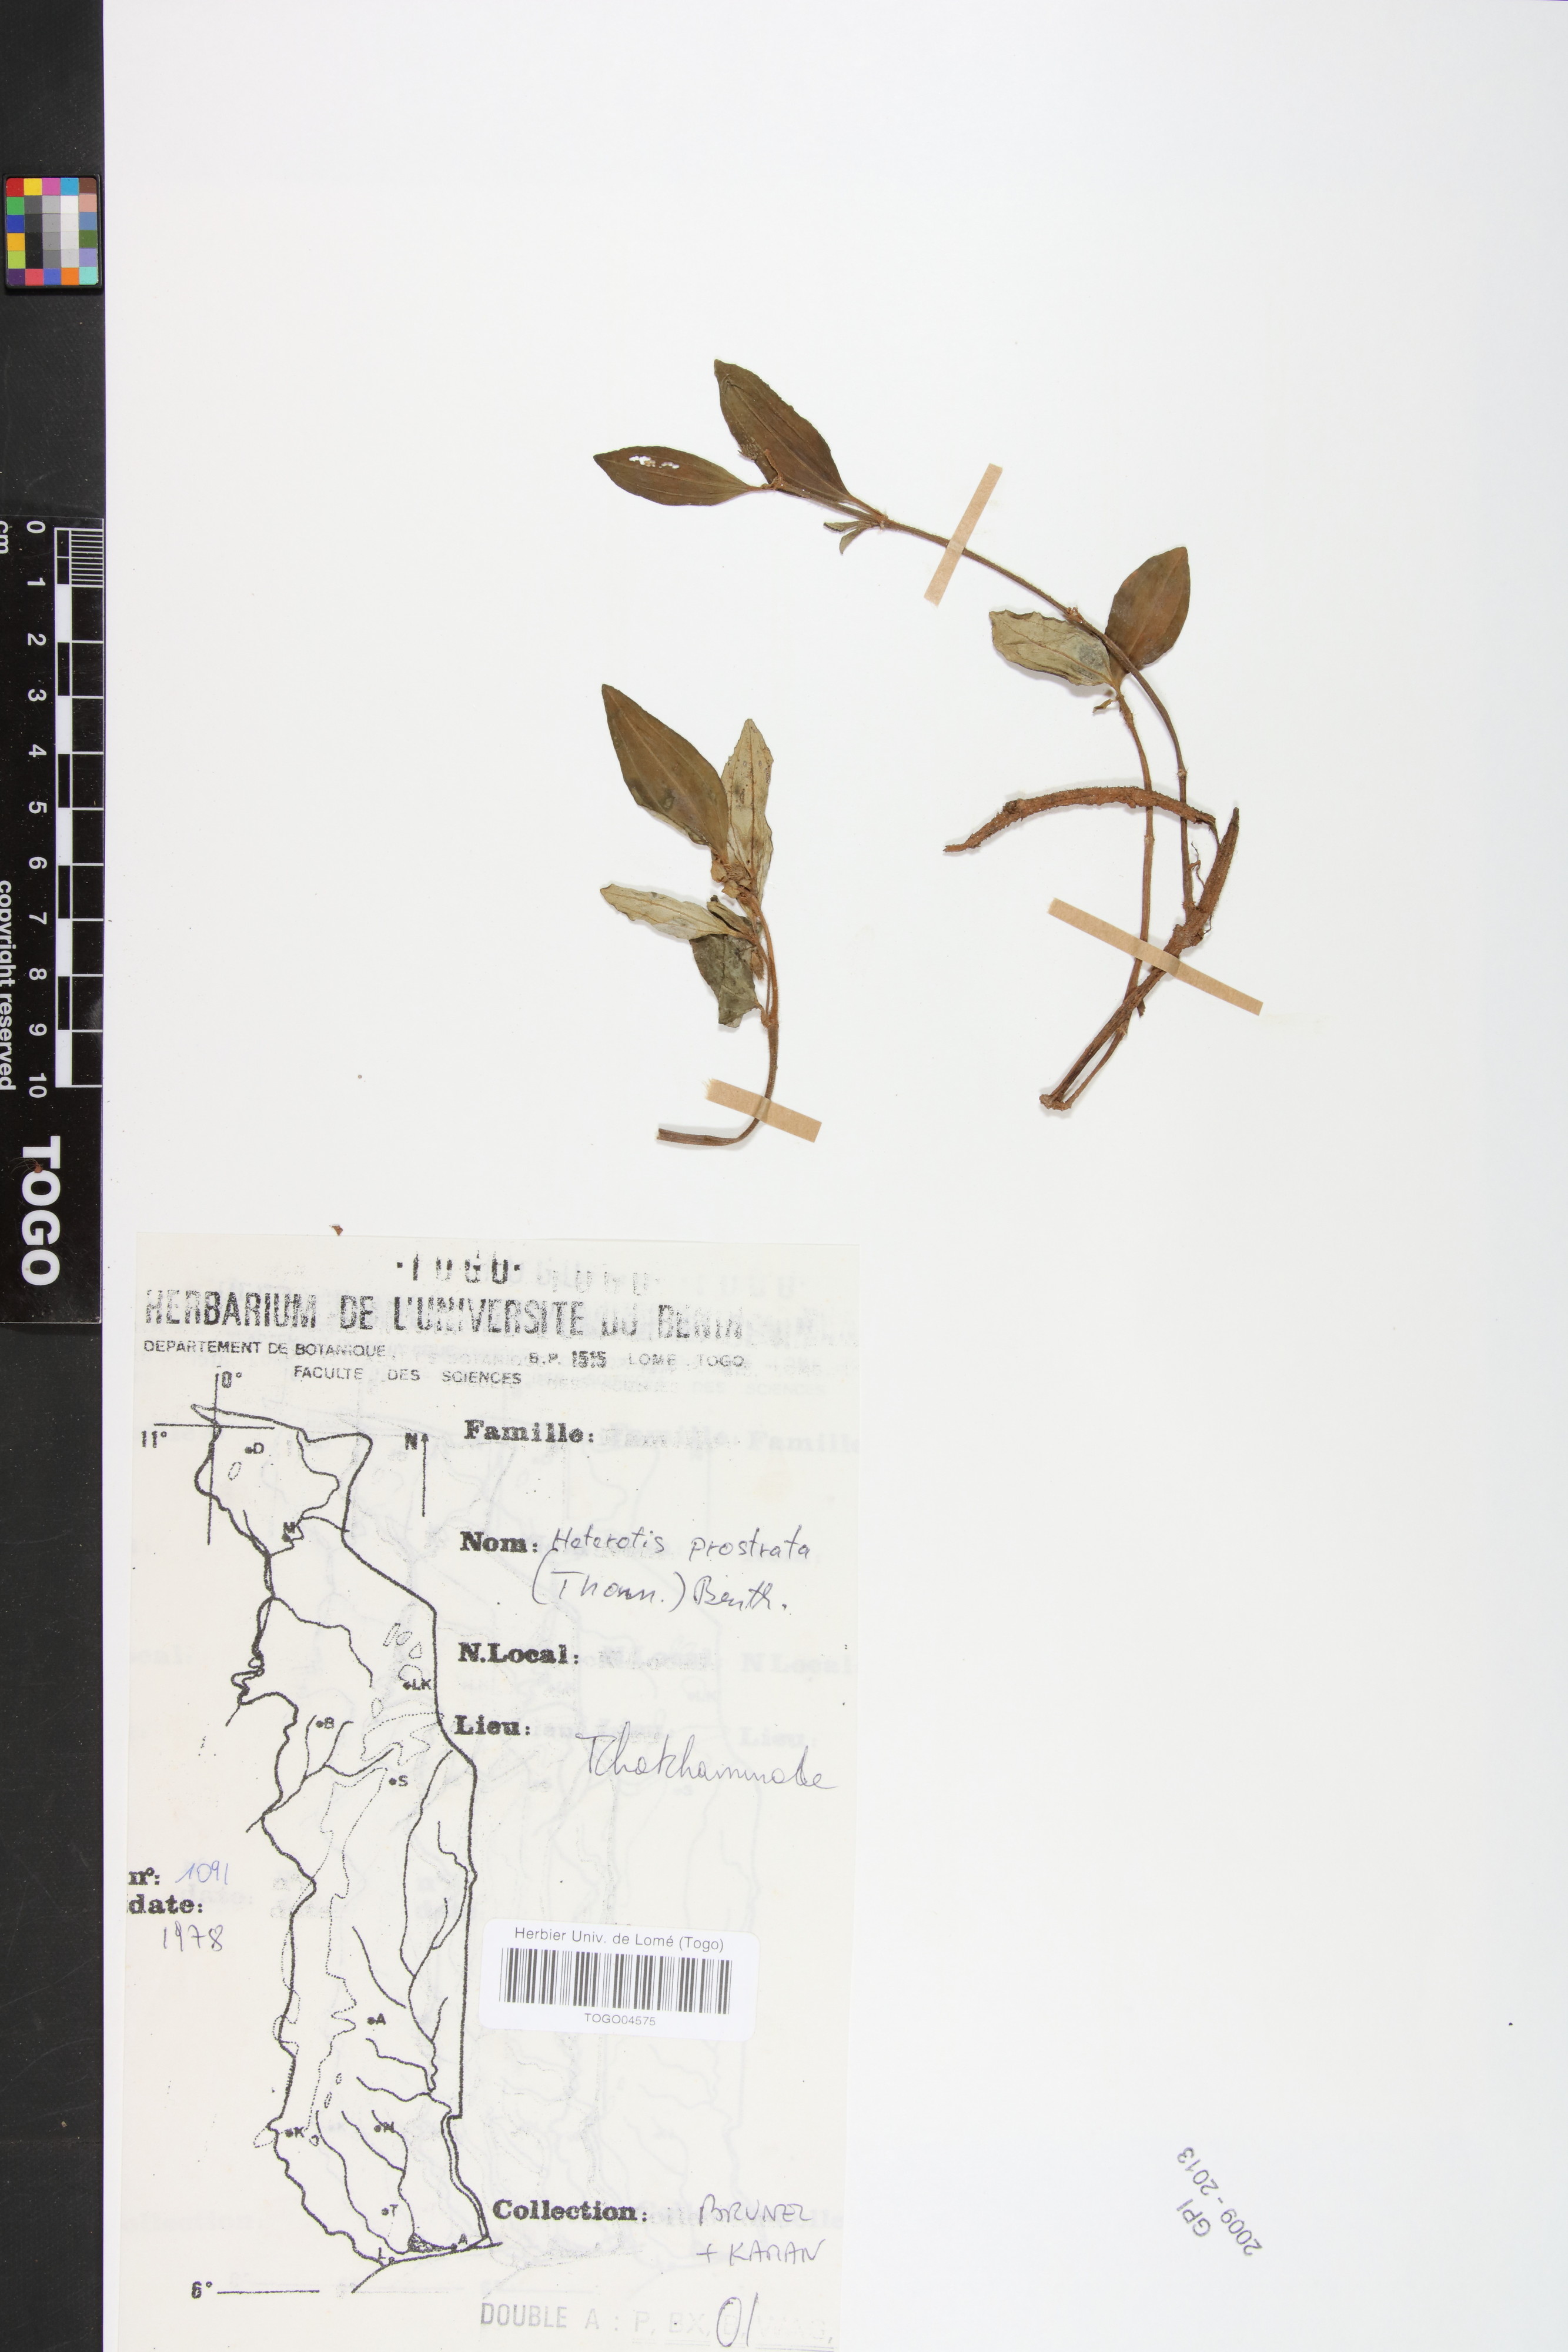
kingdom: Plantae
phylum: Tracheophyta
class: Magnoliopsida
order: Myrtales
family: Melastomataceae
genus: Heterotis
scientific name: Heterotis prostrata
